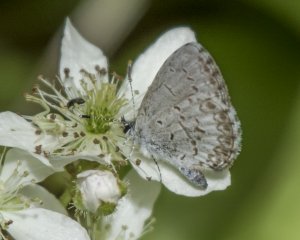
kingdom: Animalia
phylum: Arthropoda
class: Insecta
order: Lepidoptera
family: Lycaenidae
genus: Celastrina
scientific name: Celastrina
